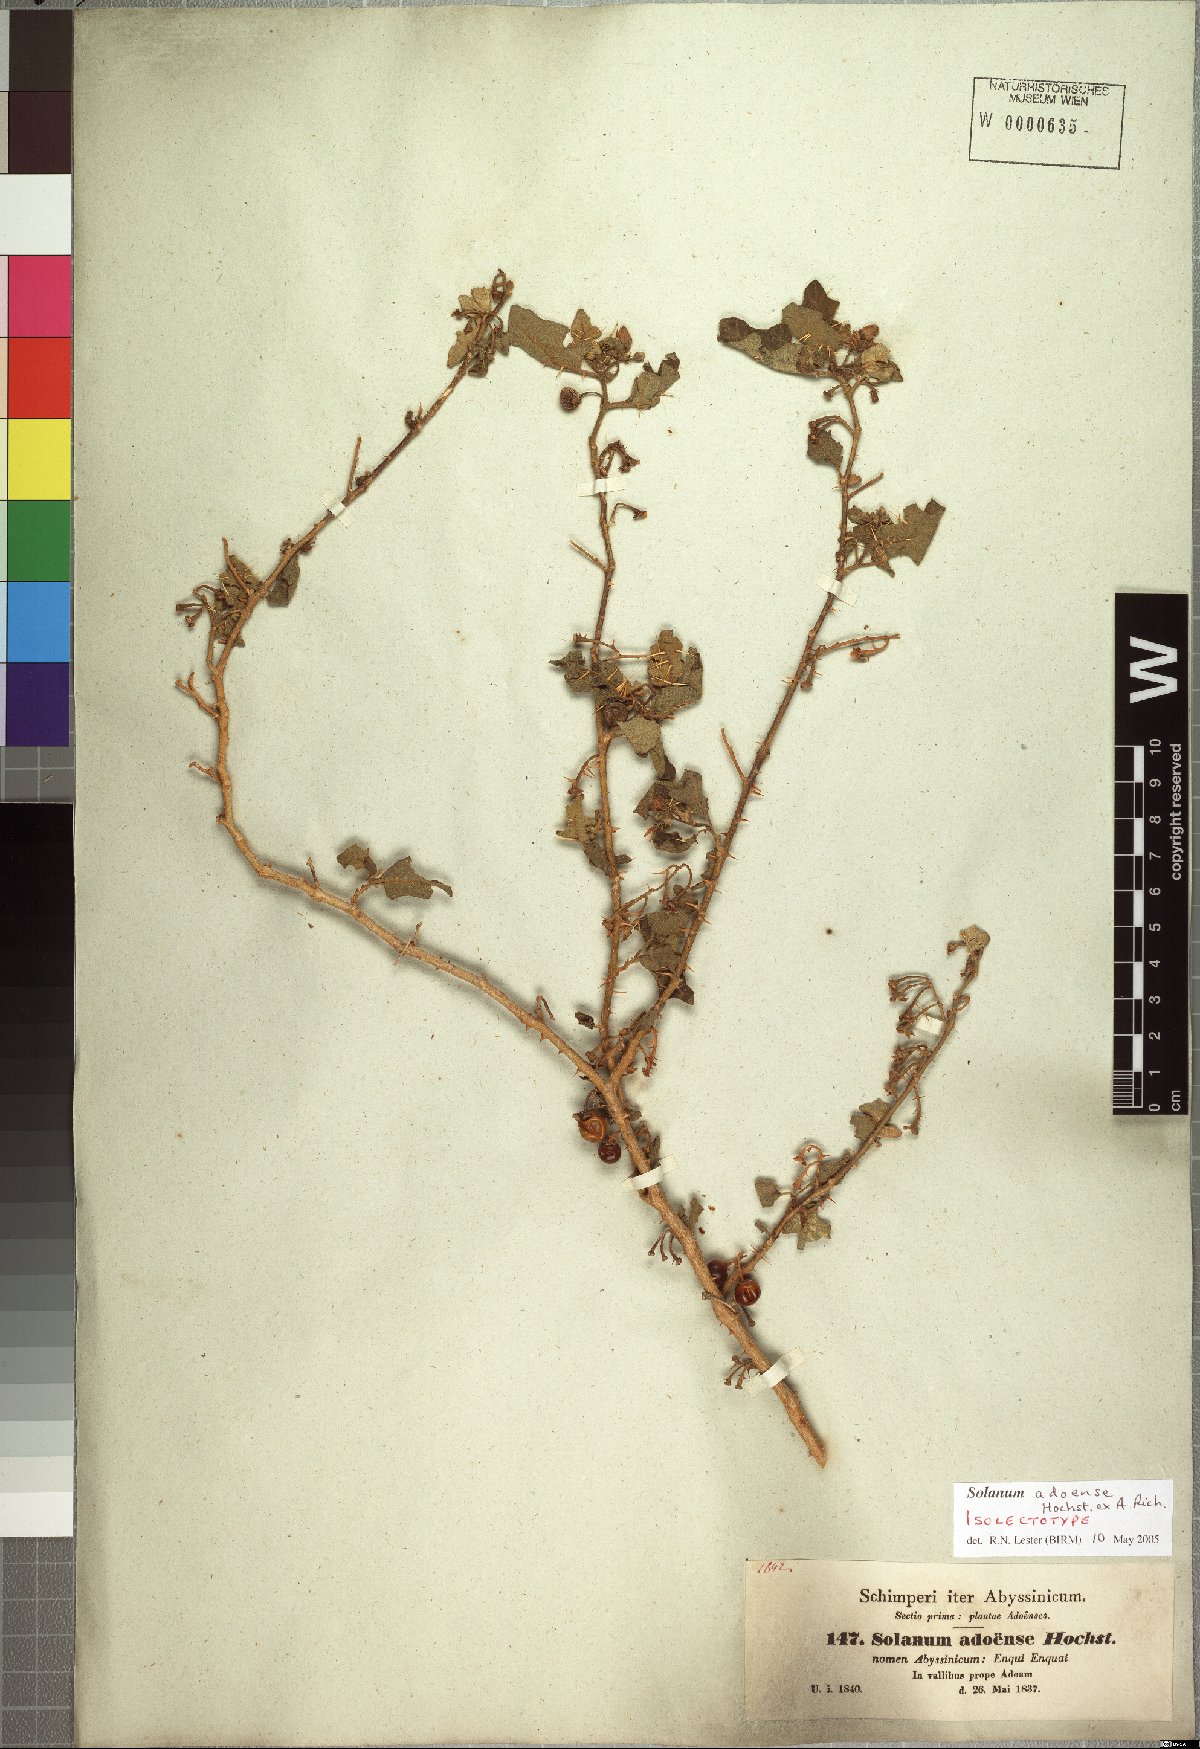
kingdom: Plantae
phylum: Tracheophyta
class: Magnoliopsida
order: Solanales
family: Solanaceae
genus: Solanum
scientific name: Solanum adoense
